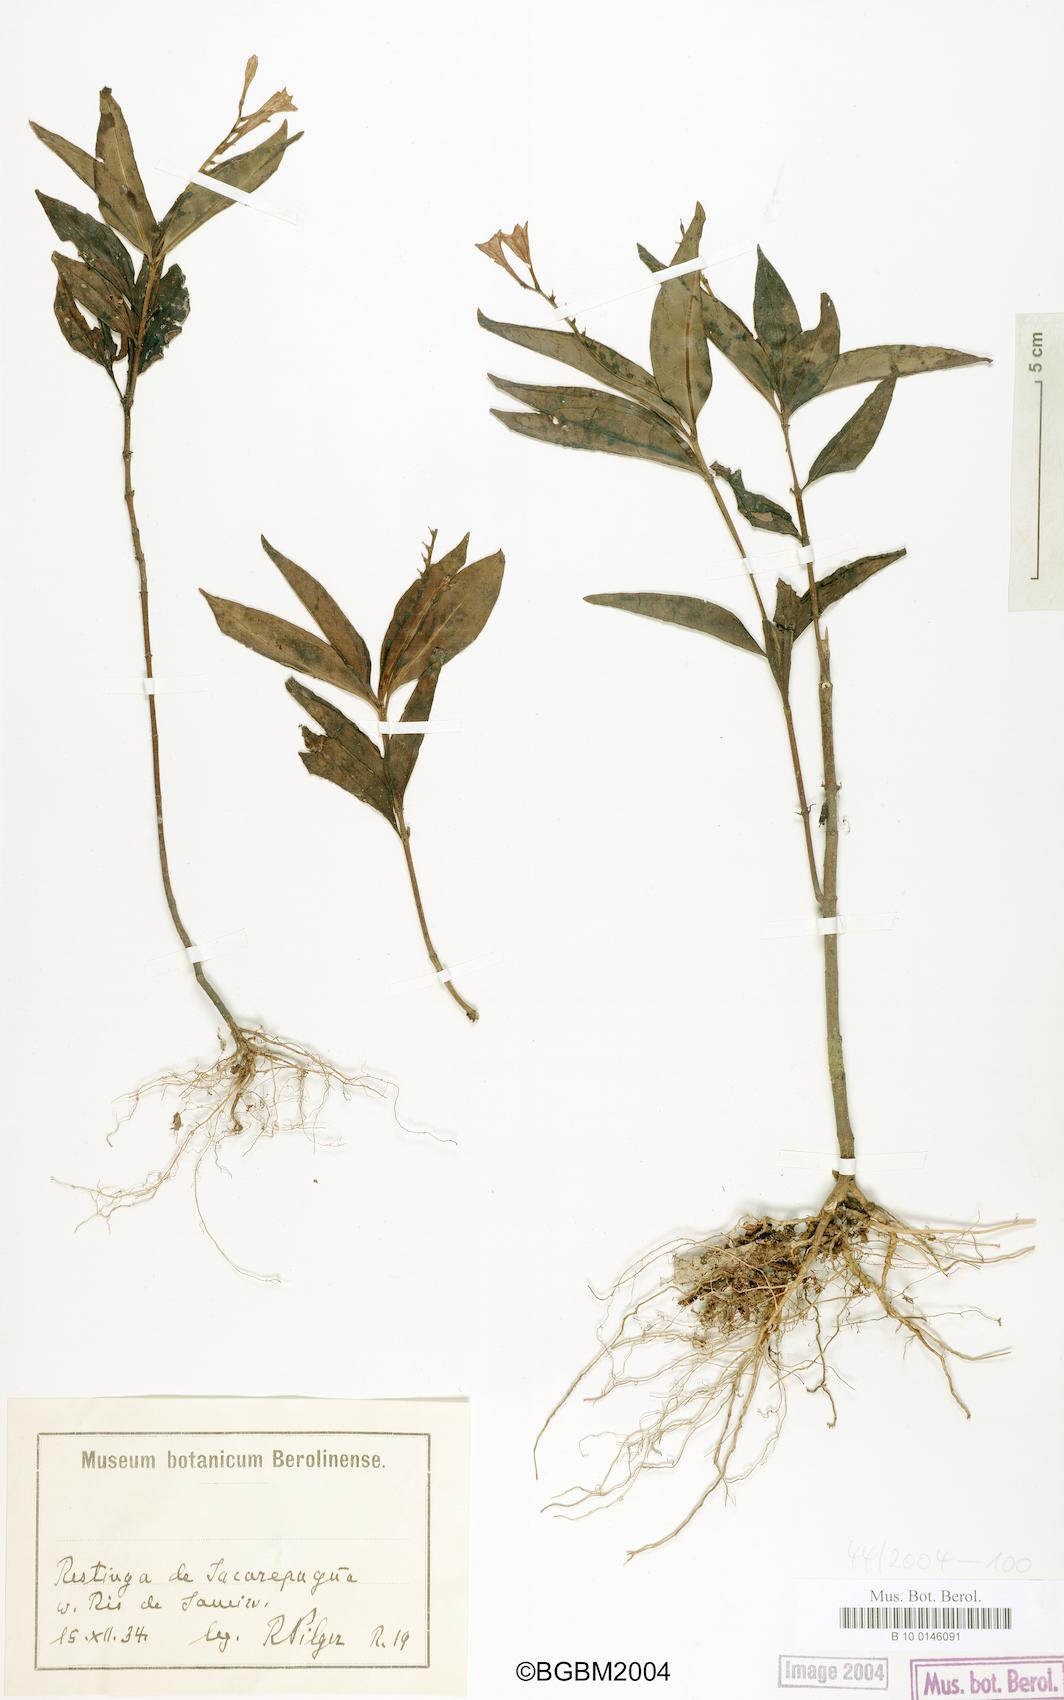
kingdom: Plantae
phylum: Tracheophyta
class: Magnoliopsida
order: Gentianales
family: Loganiaceae
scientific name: Loganiaceae
